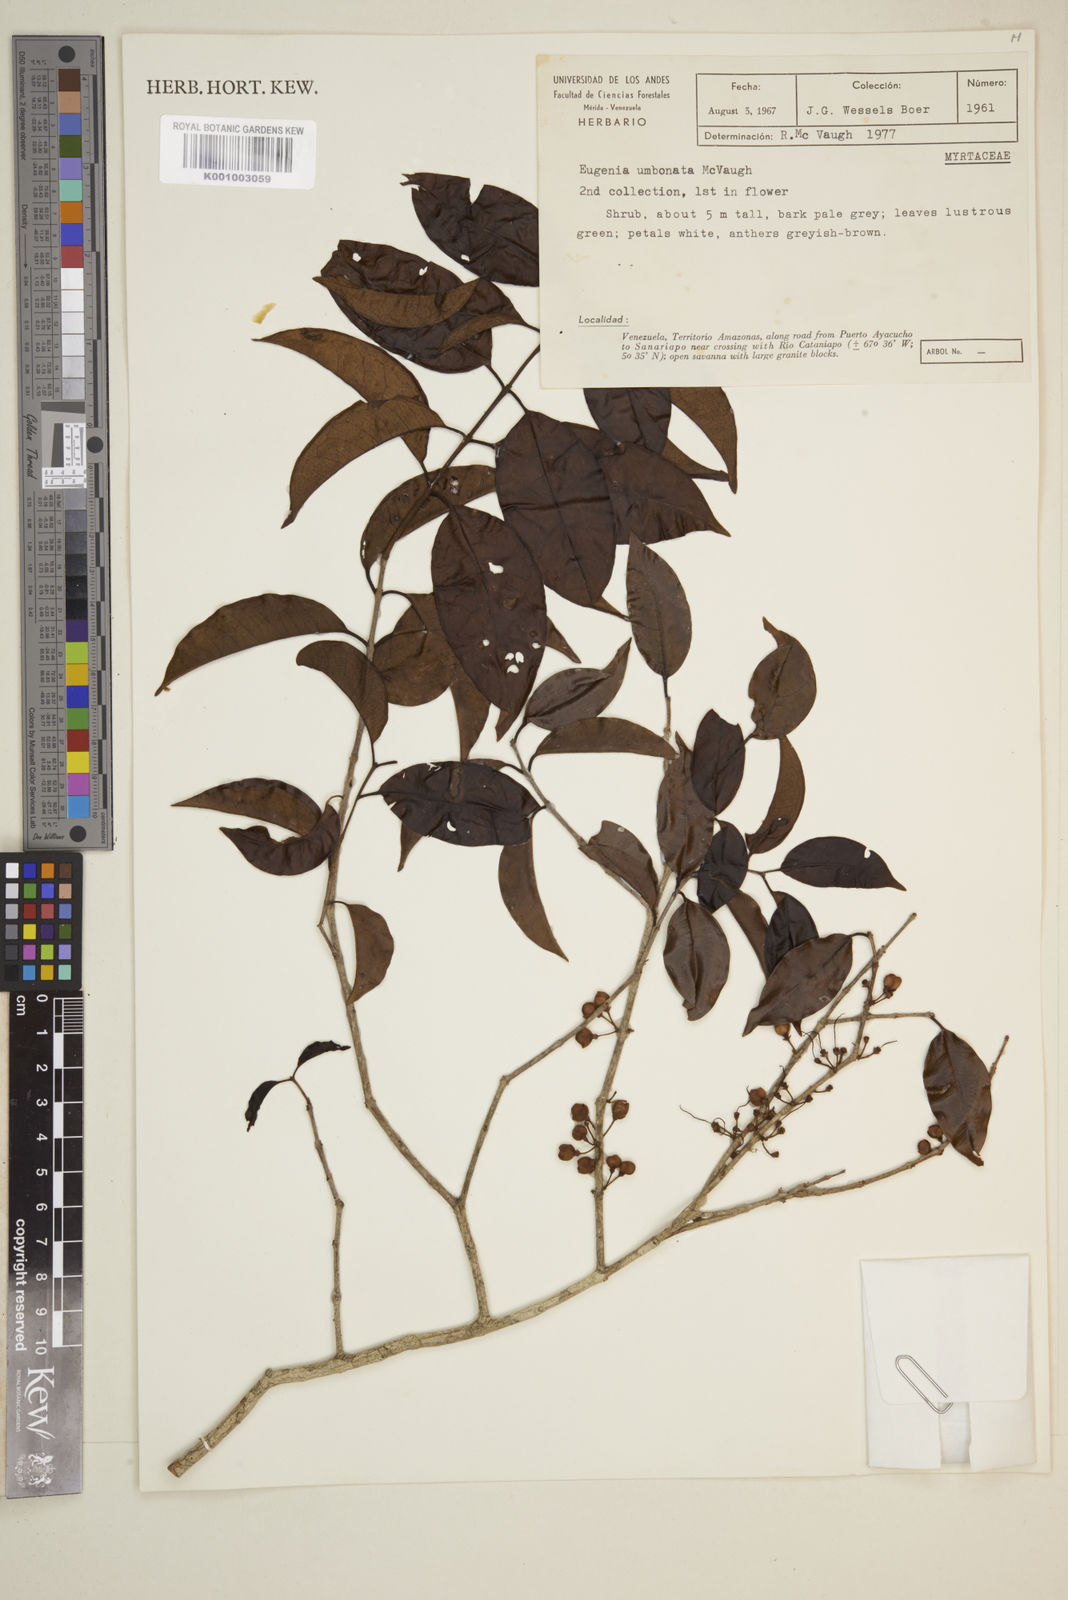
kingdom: Plantae
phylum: Tracheophyta
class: Magnoliopsida
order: Myrtales
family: Myrtaceae
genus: Eugenia
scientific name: Eugenia umbonata
